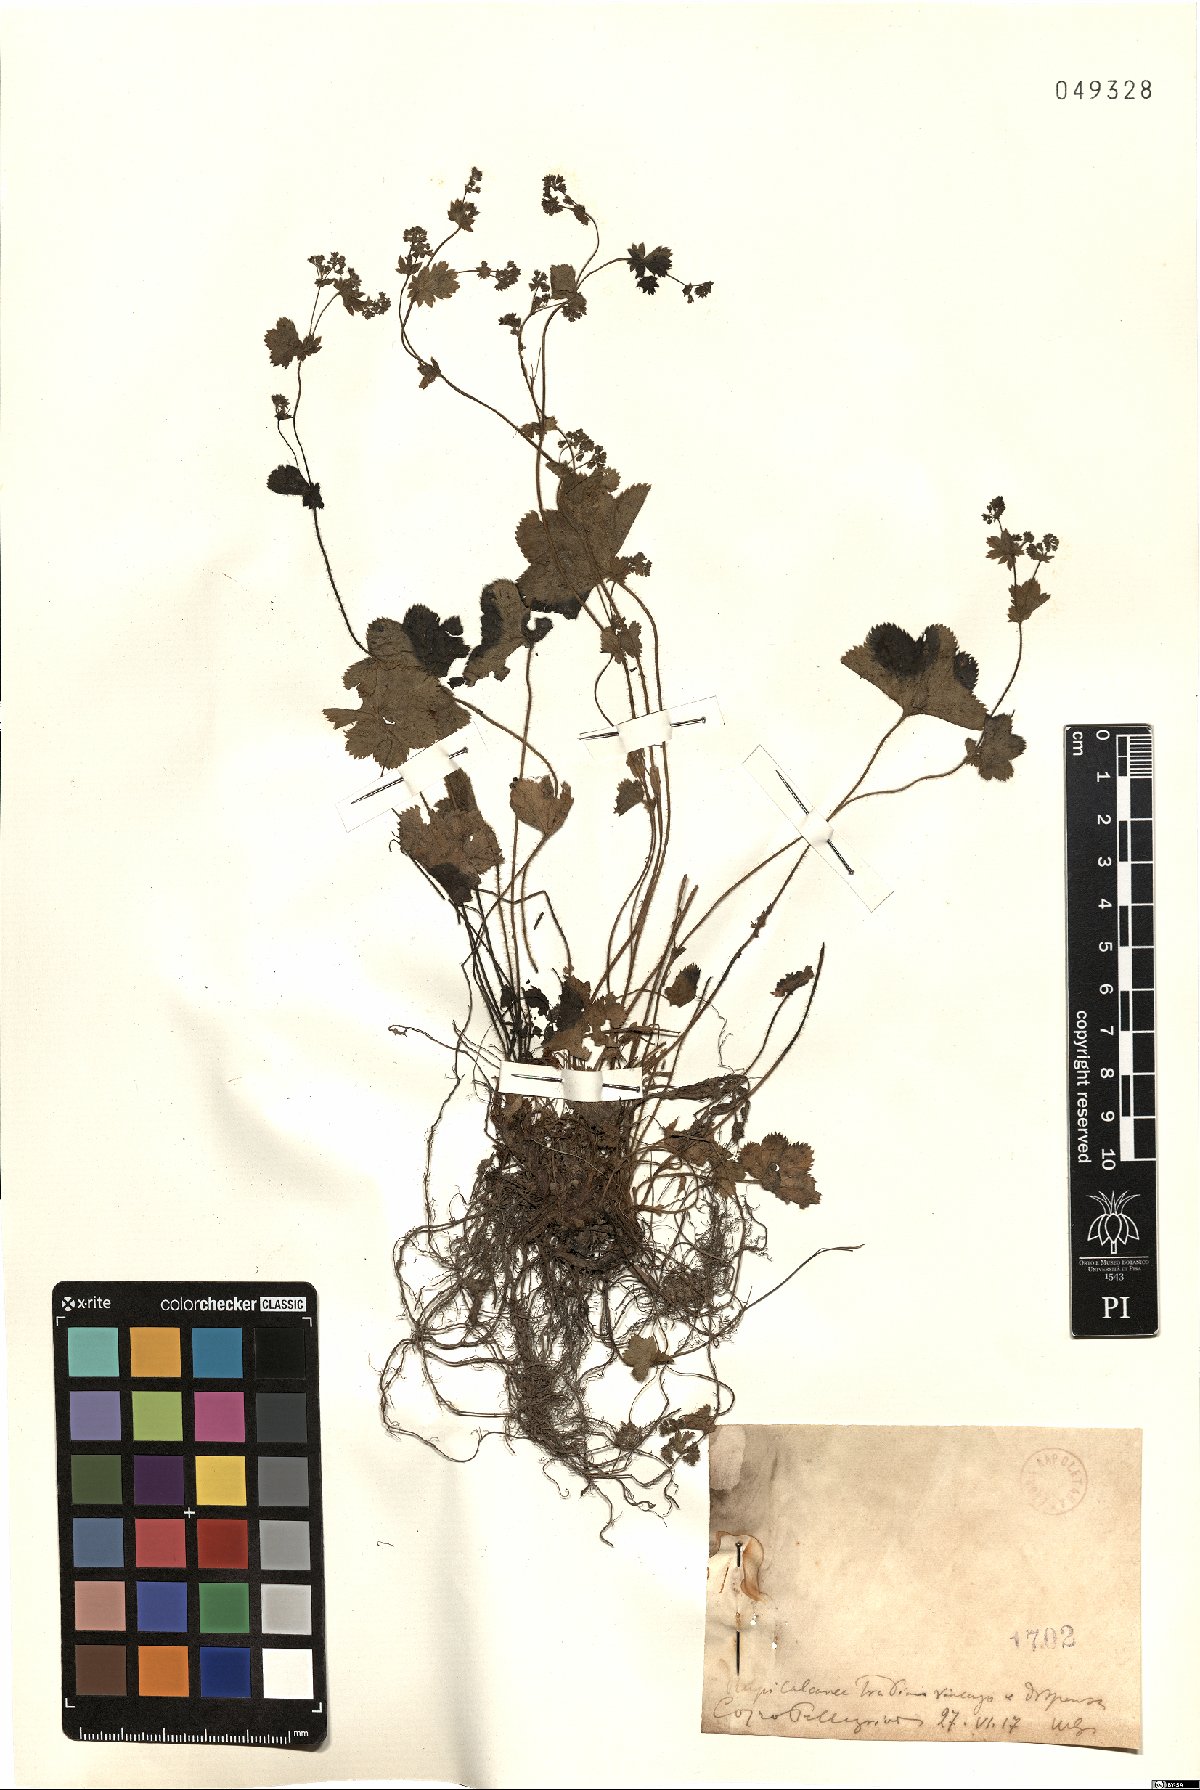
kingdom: Plantae
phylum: Tracheophyta
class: Magnoliopsida
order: Rosales
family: Rosaceae
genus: Alchemilla
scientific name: Alchemilla filicaulis
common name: Hairy lady's-mantle
